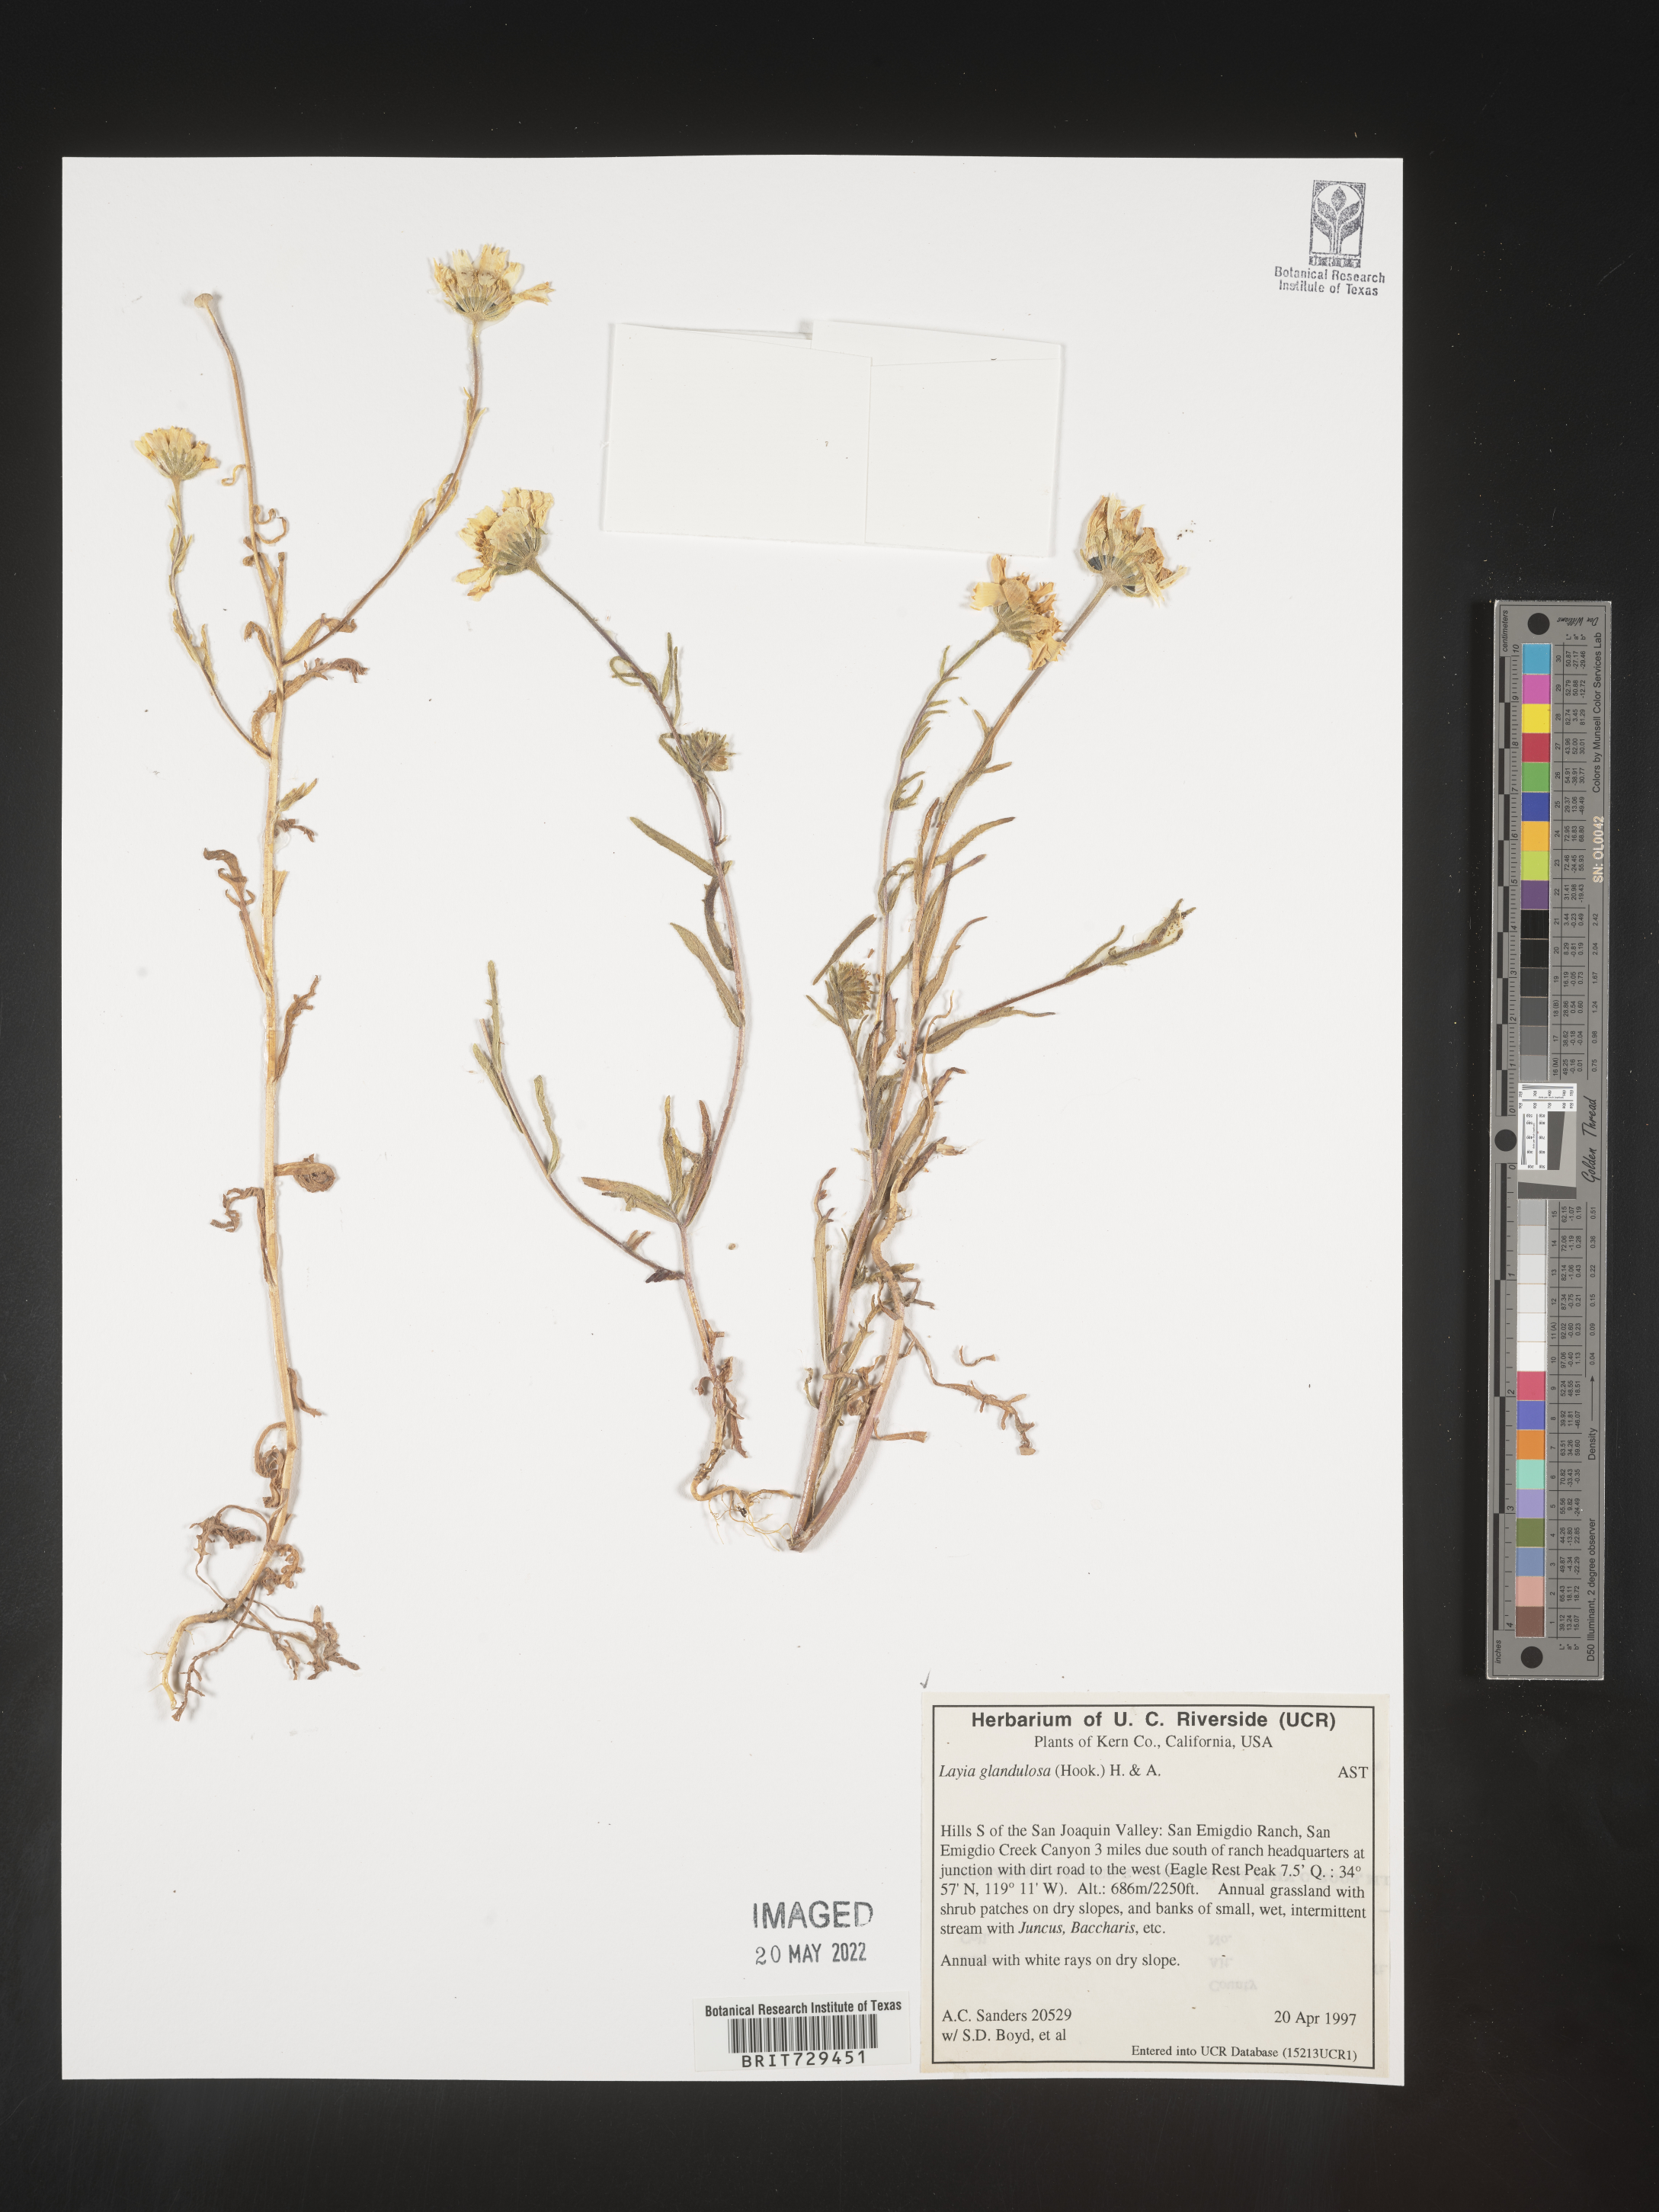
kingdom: Plantae
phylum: Tracheophyta
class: Magnoliopsida
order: Asterales
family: Asteraceae
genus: Layia
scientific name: Layia
